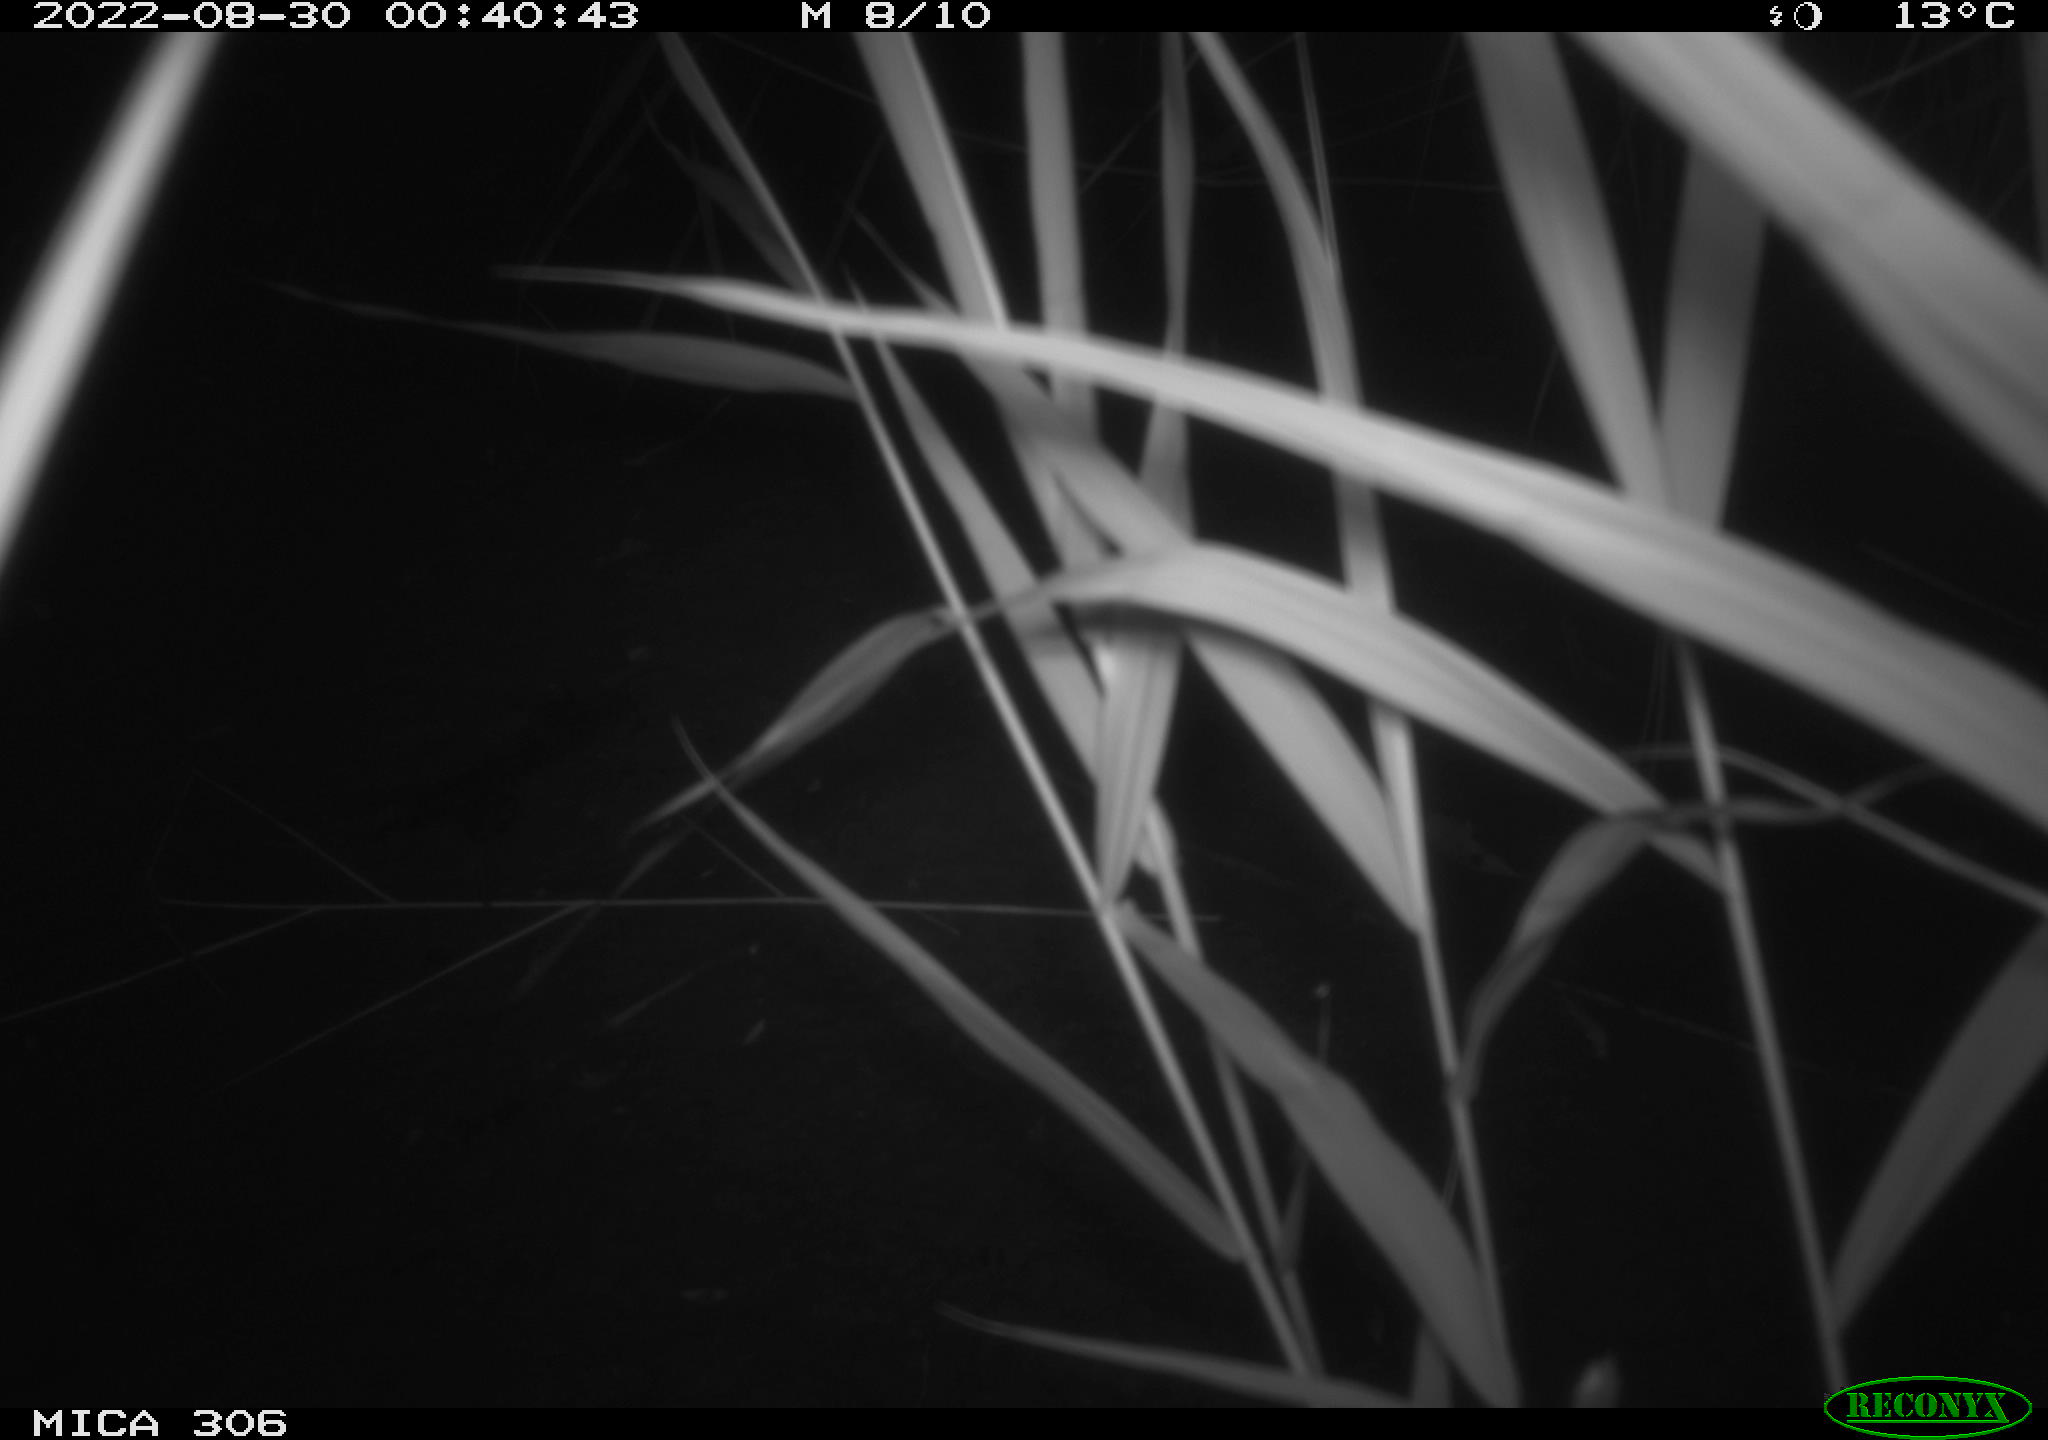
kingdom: Animalia
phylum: Chordata
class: Mammalia
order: Rodentia
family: Muridae
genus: Rattus
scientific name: Rattus norvegicus
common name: Brown rat
